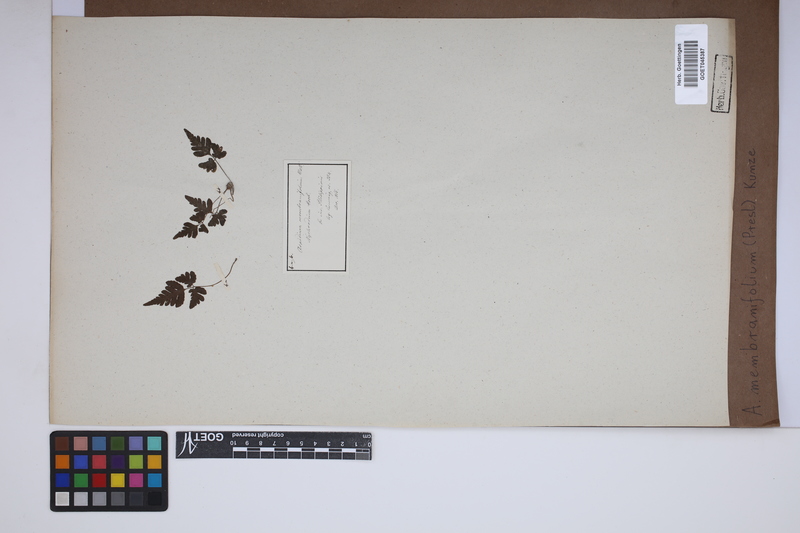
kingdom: Plantae
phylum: Tracheophyta
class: Polypodiopsida
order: Polypodiales
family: Tectariaceae
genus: Tectaria
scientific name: Tectaria dissecta
